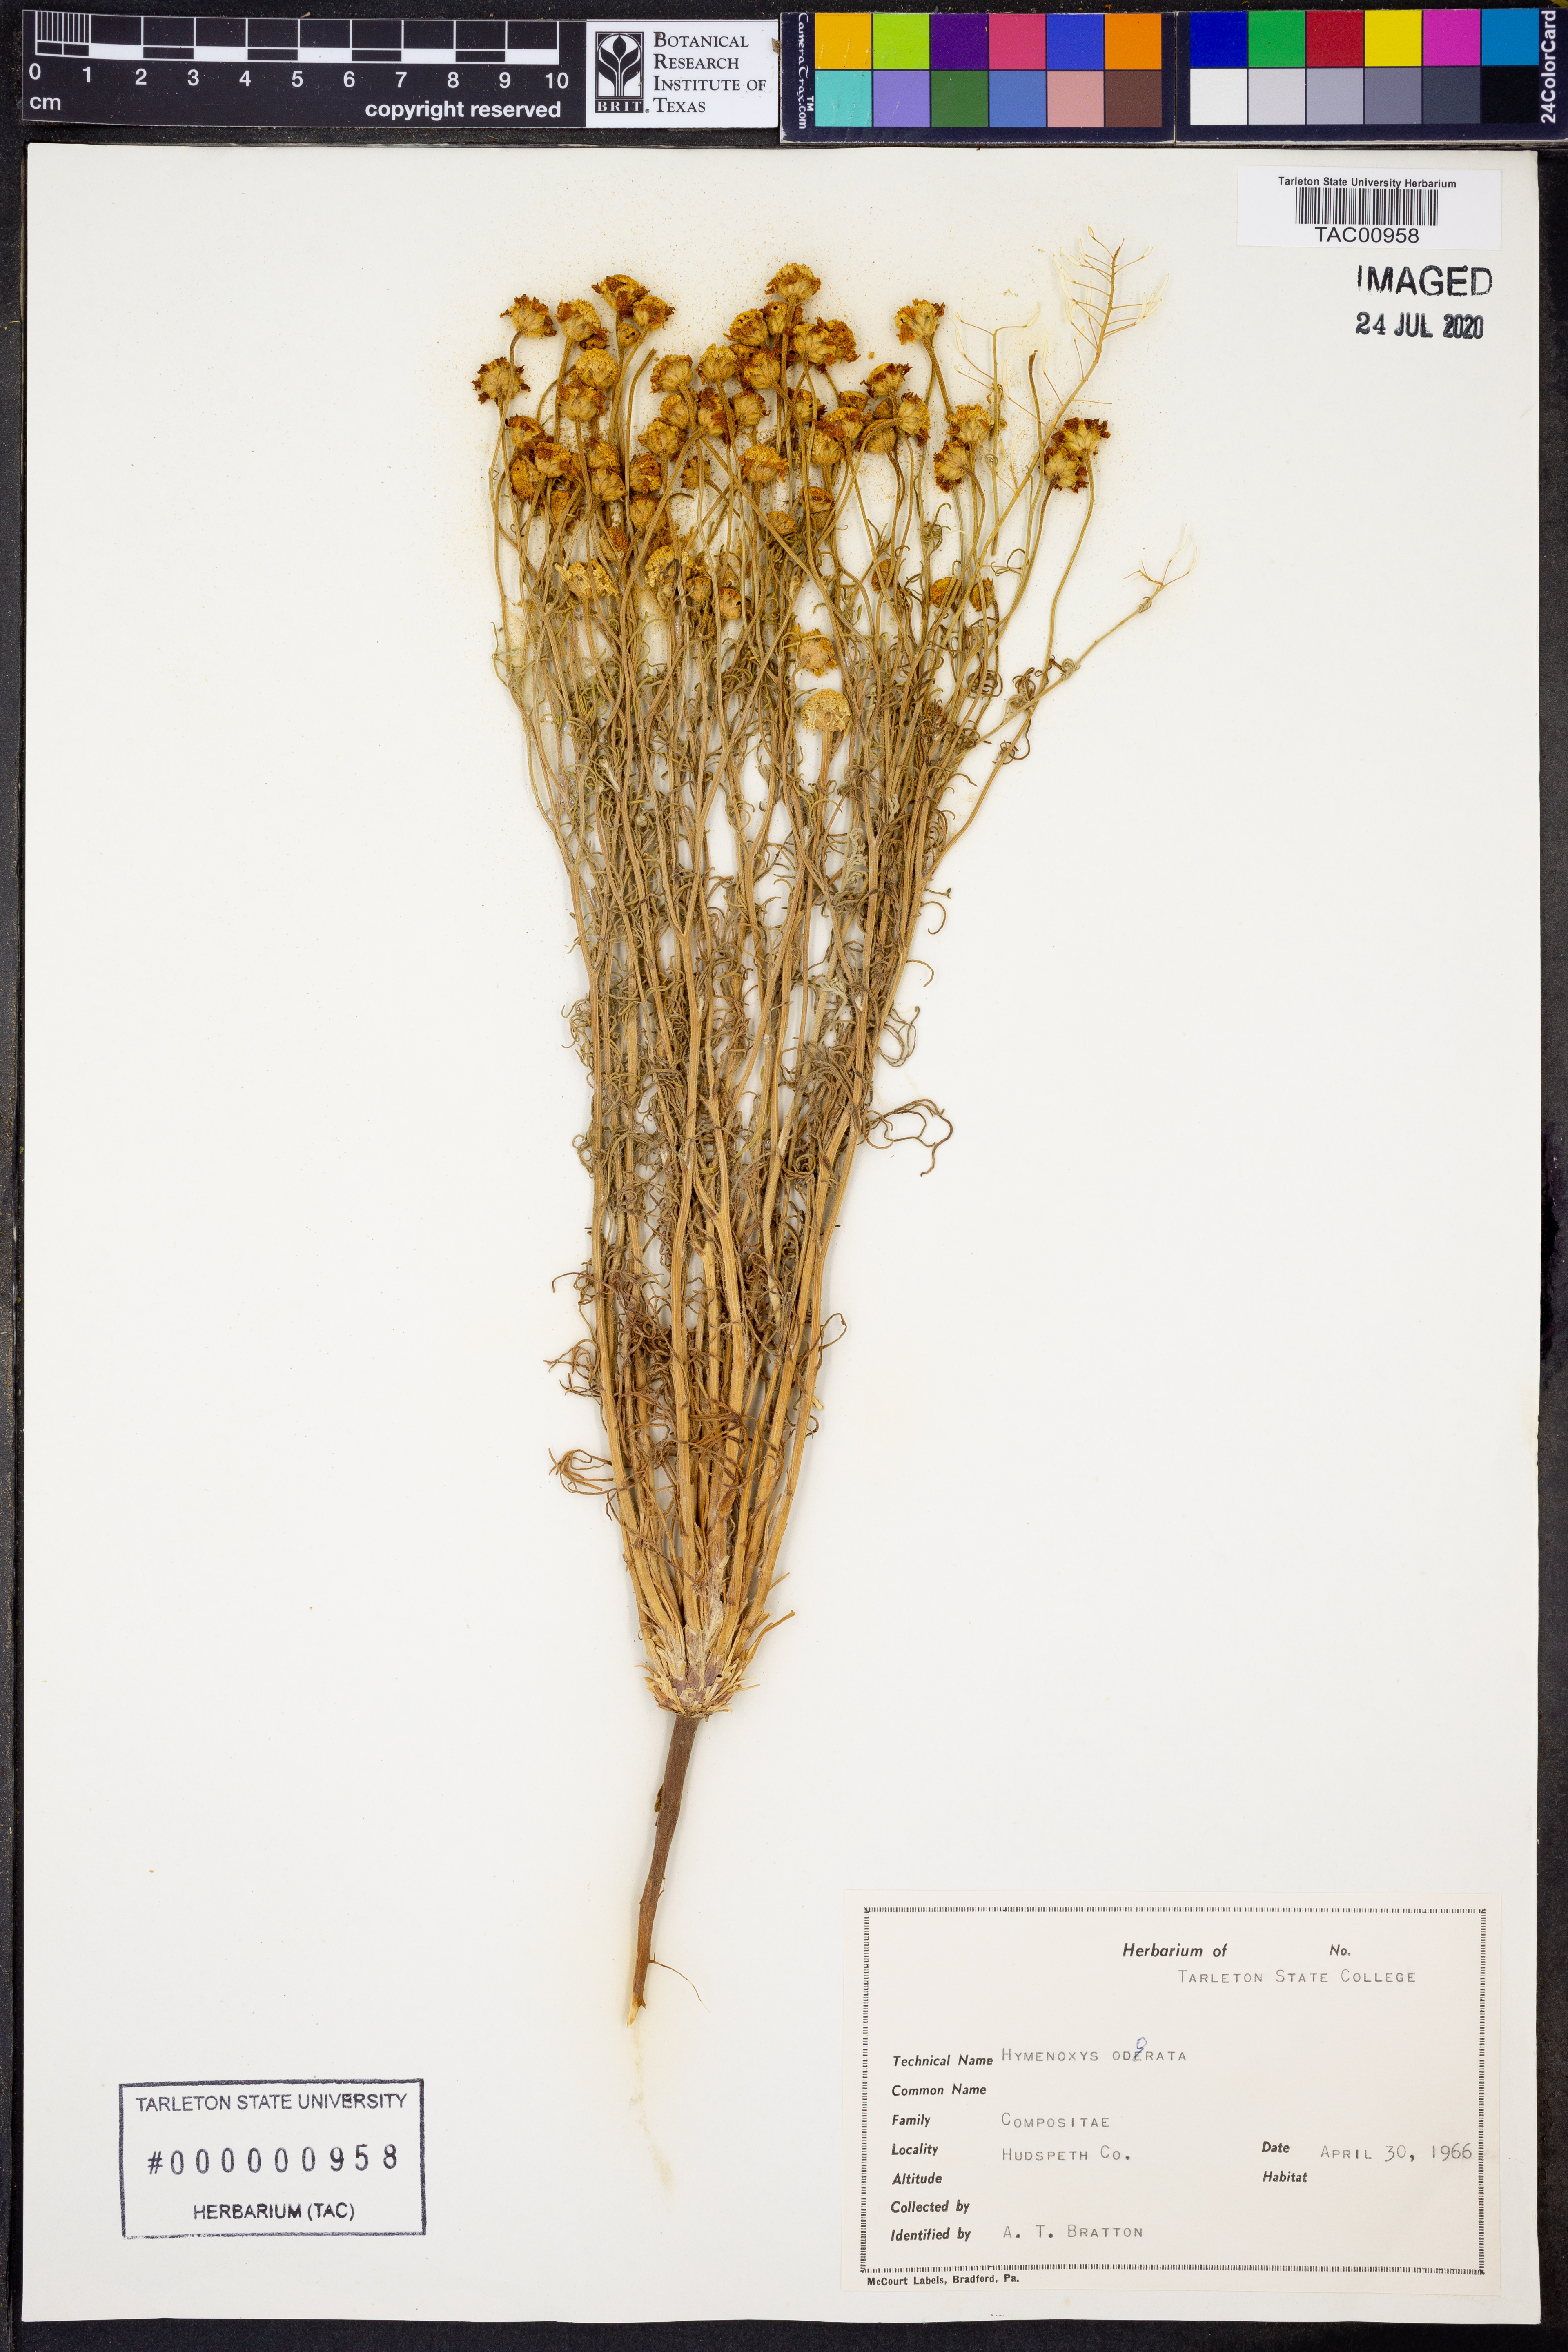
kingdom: Plantae
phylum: Tracheophyta
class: Magnoliopsida
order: Asterales
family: Asteraceae
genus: Hymenoxys
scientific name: Hymenoxys odorata
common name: Bitter rubberweed
